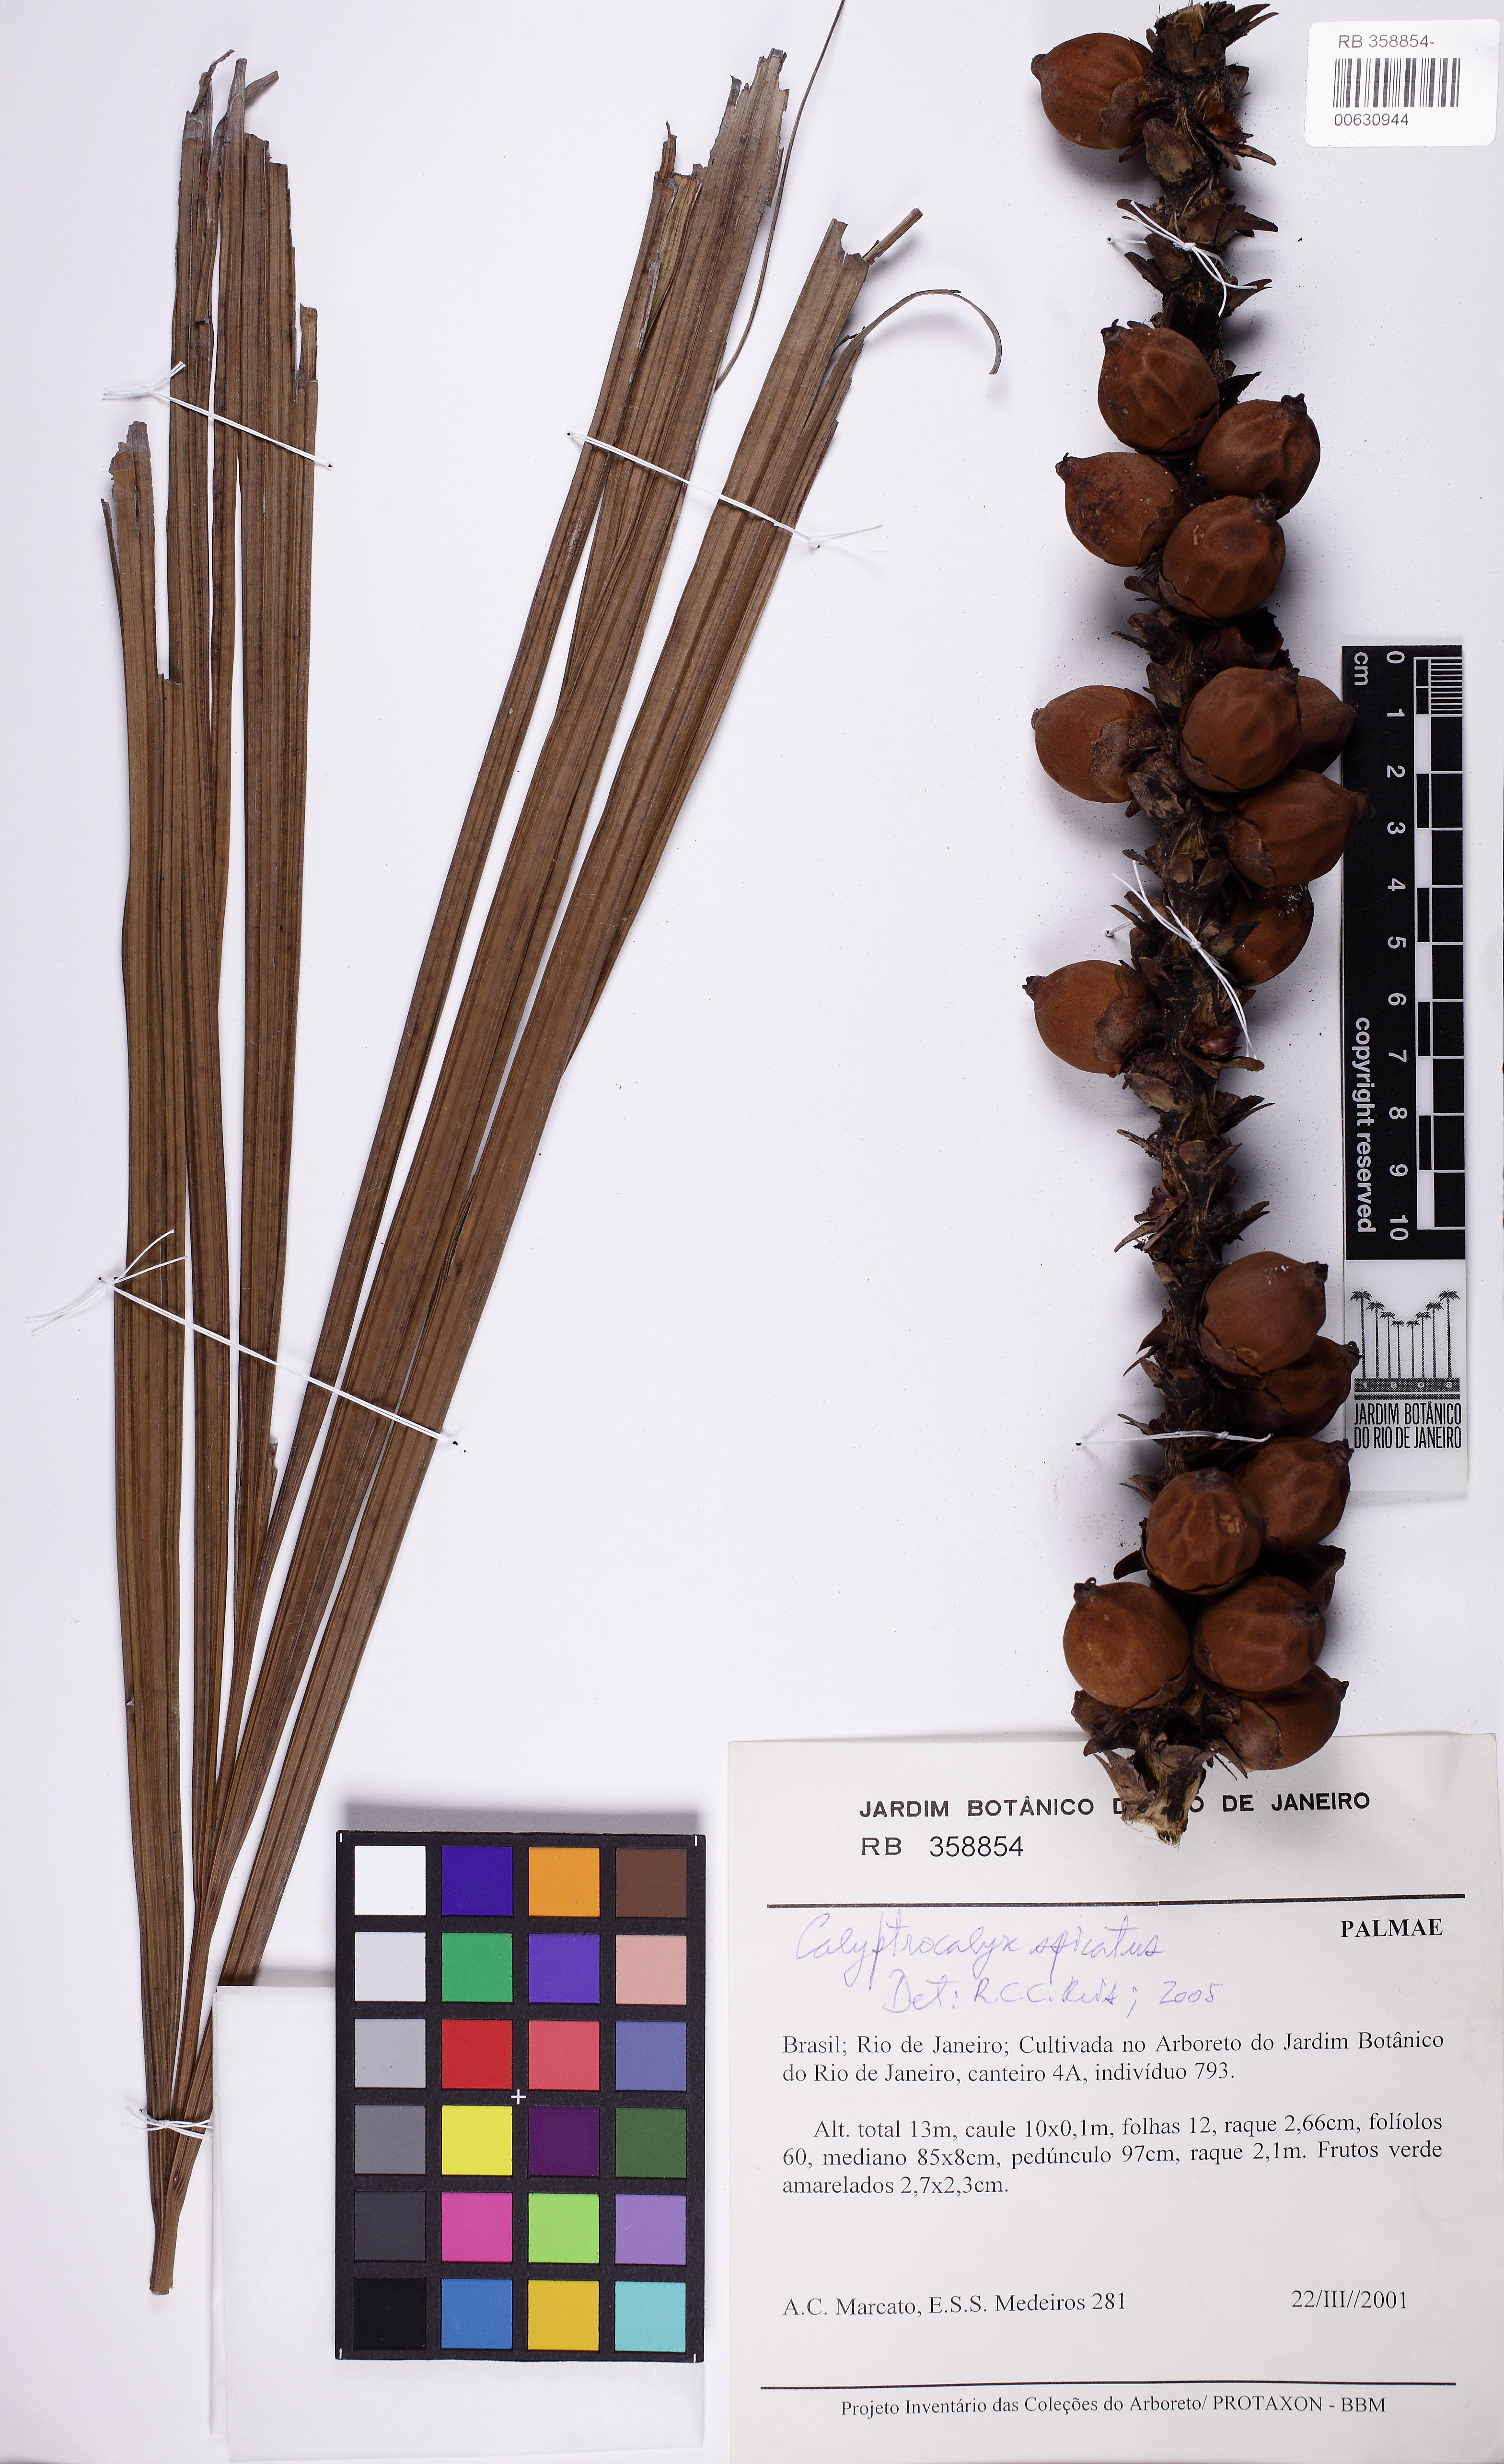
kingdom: Plantae
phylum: Tracheophyta
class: Liliopsida
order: Arecales
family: Arecaceae
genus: Calyptrocalyx
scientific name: Calyptrocalyx spicatus
